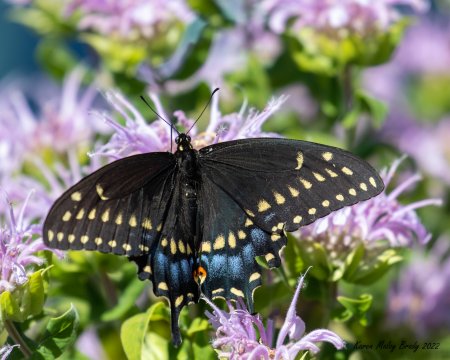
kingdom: Animalia
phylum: Arthropoda
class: Insecta
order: Lepidoptera
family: Papilionidae
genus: Papilio
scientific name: Papilio polyxenes
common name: Black Swallowtail
